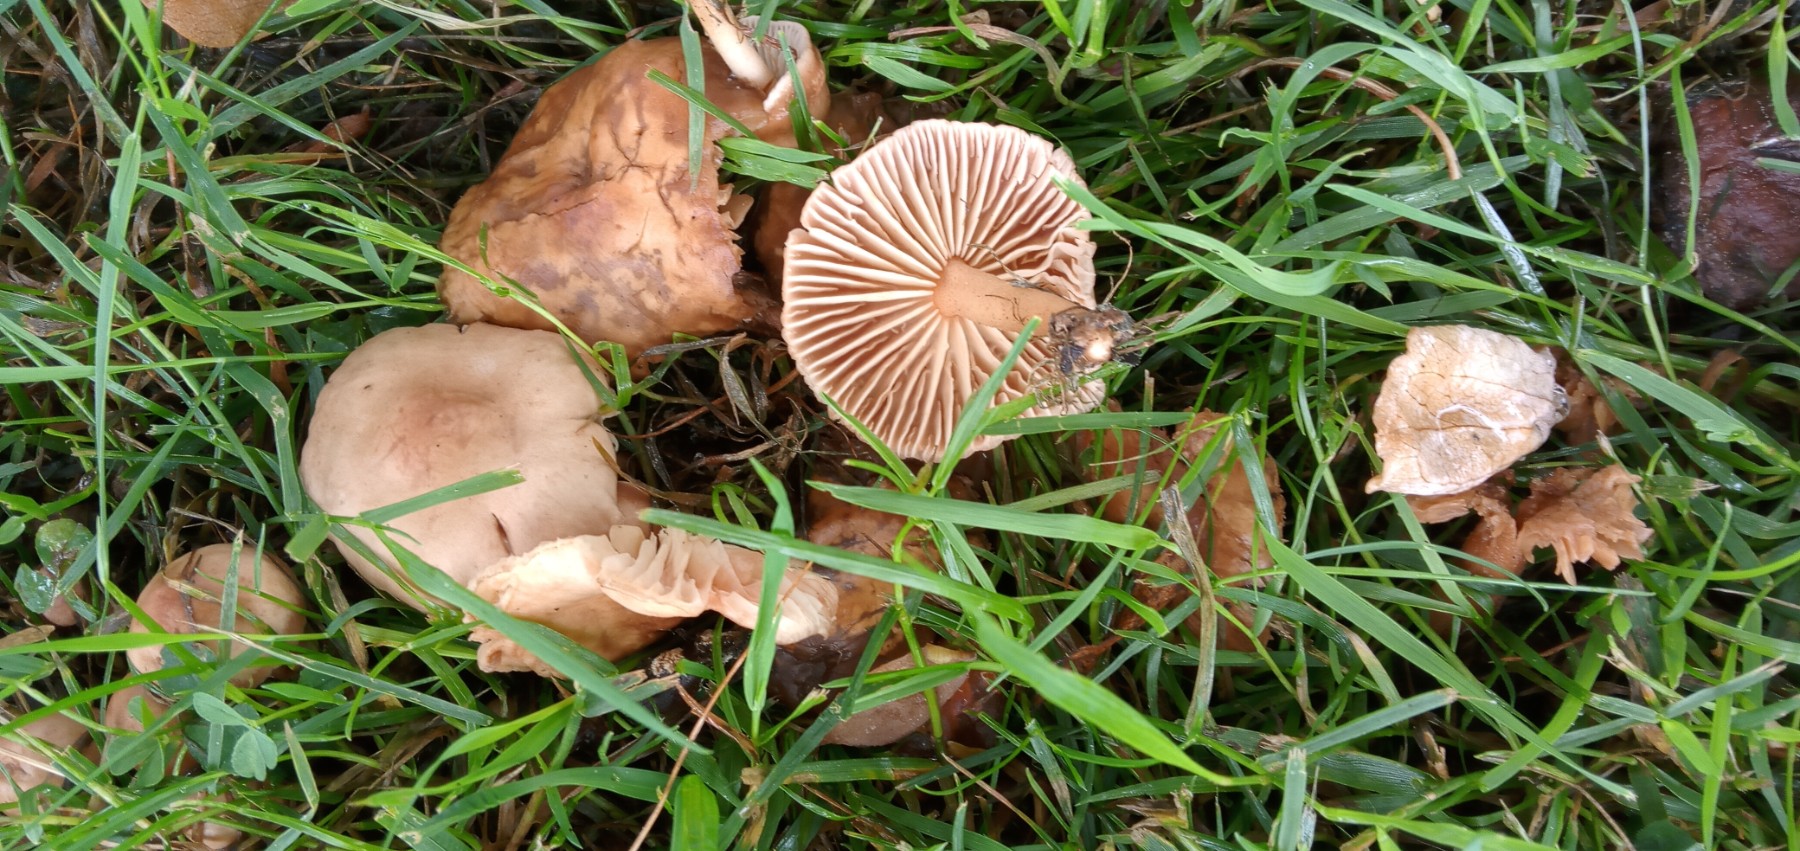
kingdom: Fungi
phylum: Basidiomycota
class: Agaricomycetes
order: Agaricales
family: Marasmiaceae
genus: Marasmius
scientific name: Marasmius oreades
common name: elledans-bruskhat
